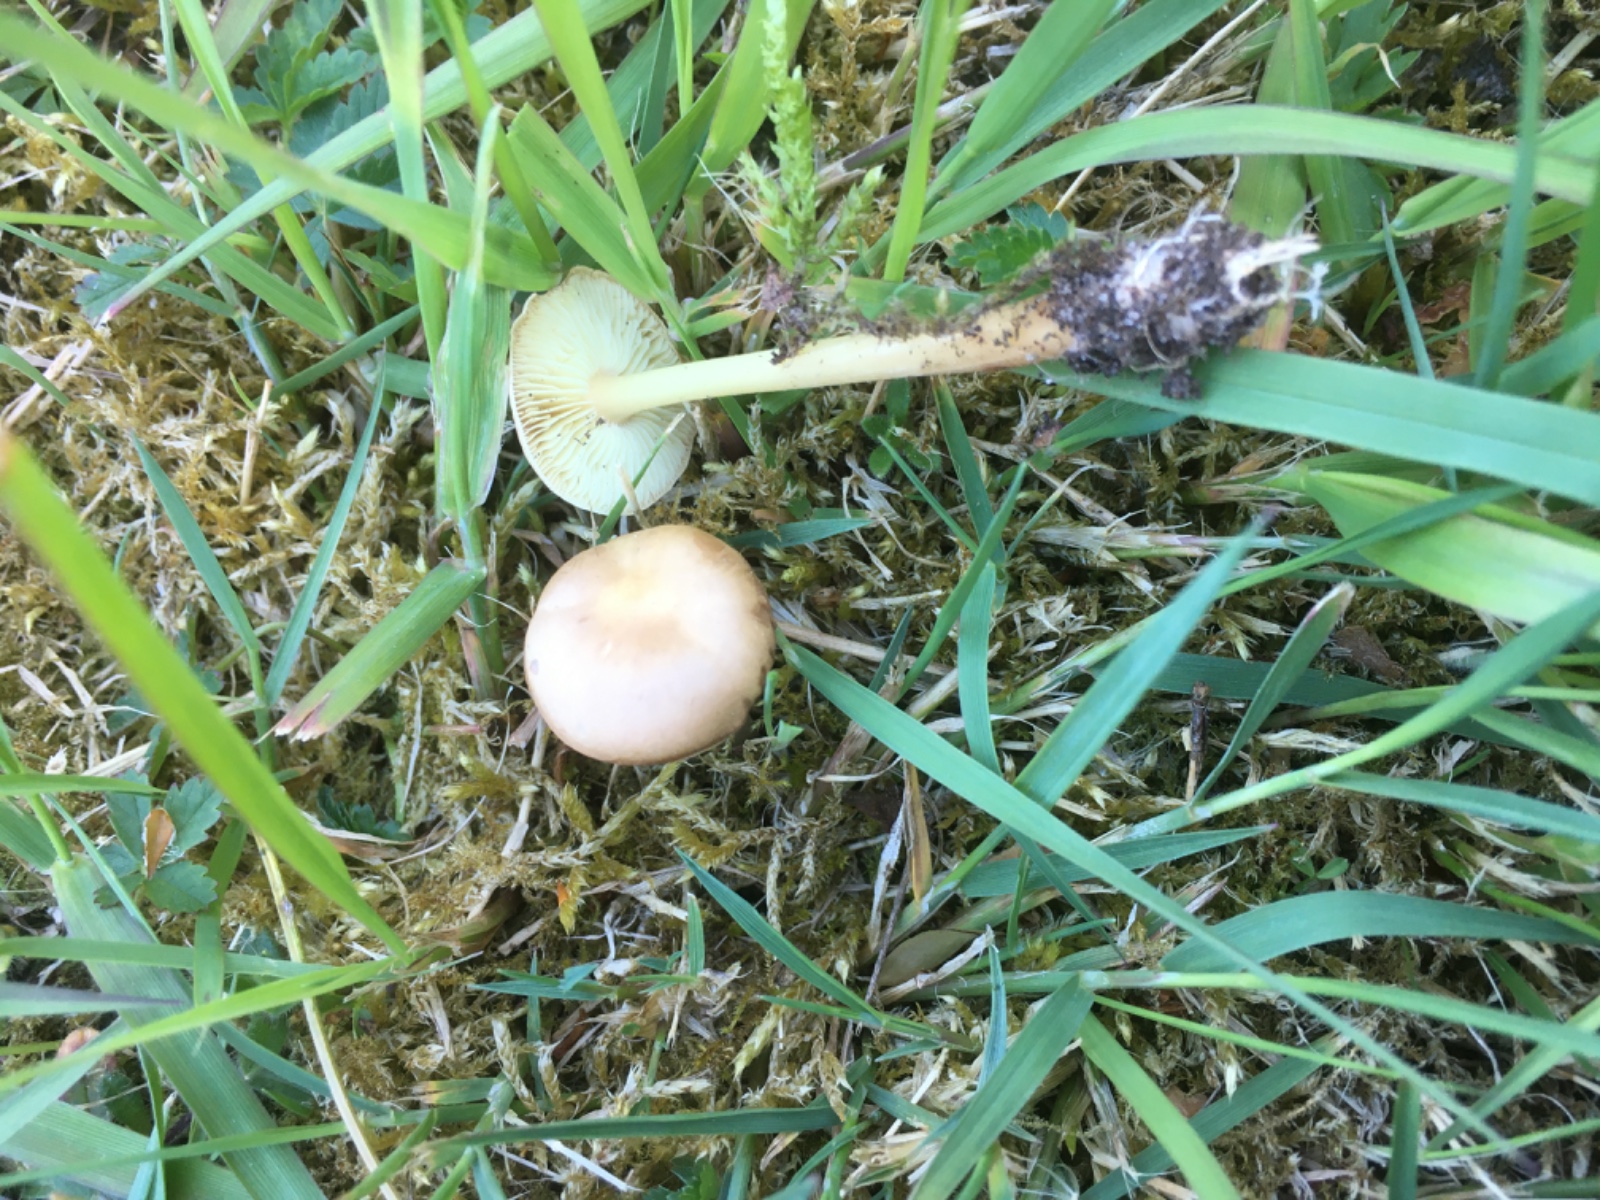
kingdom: Fungi
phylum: Basidiomycota
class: Agaricomycetes
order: Agaricales
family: Omphalotaceae
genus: Gymnopus
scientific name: Gymnopus aquosus
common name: bleg fladhat
